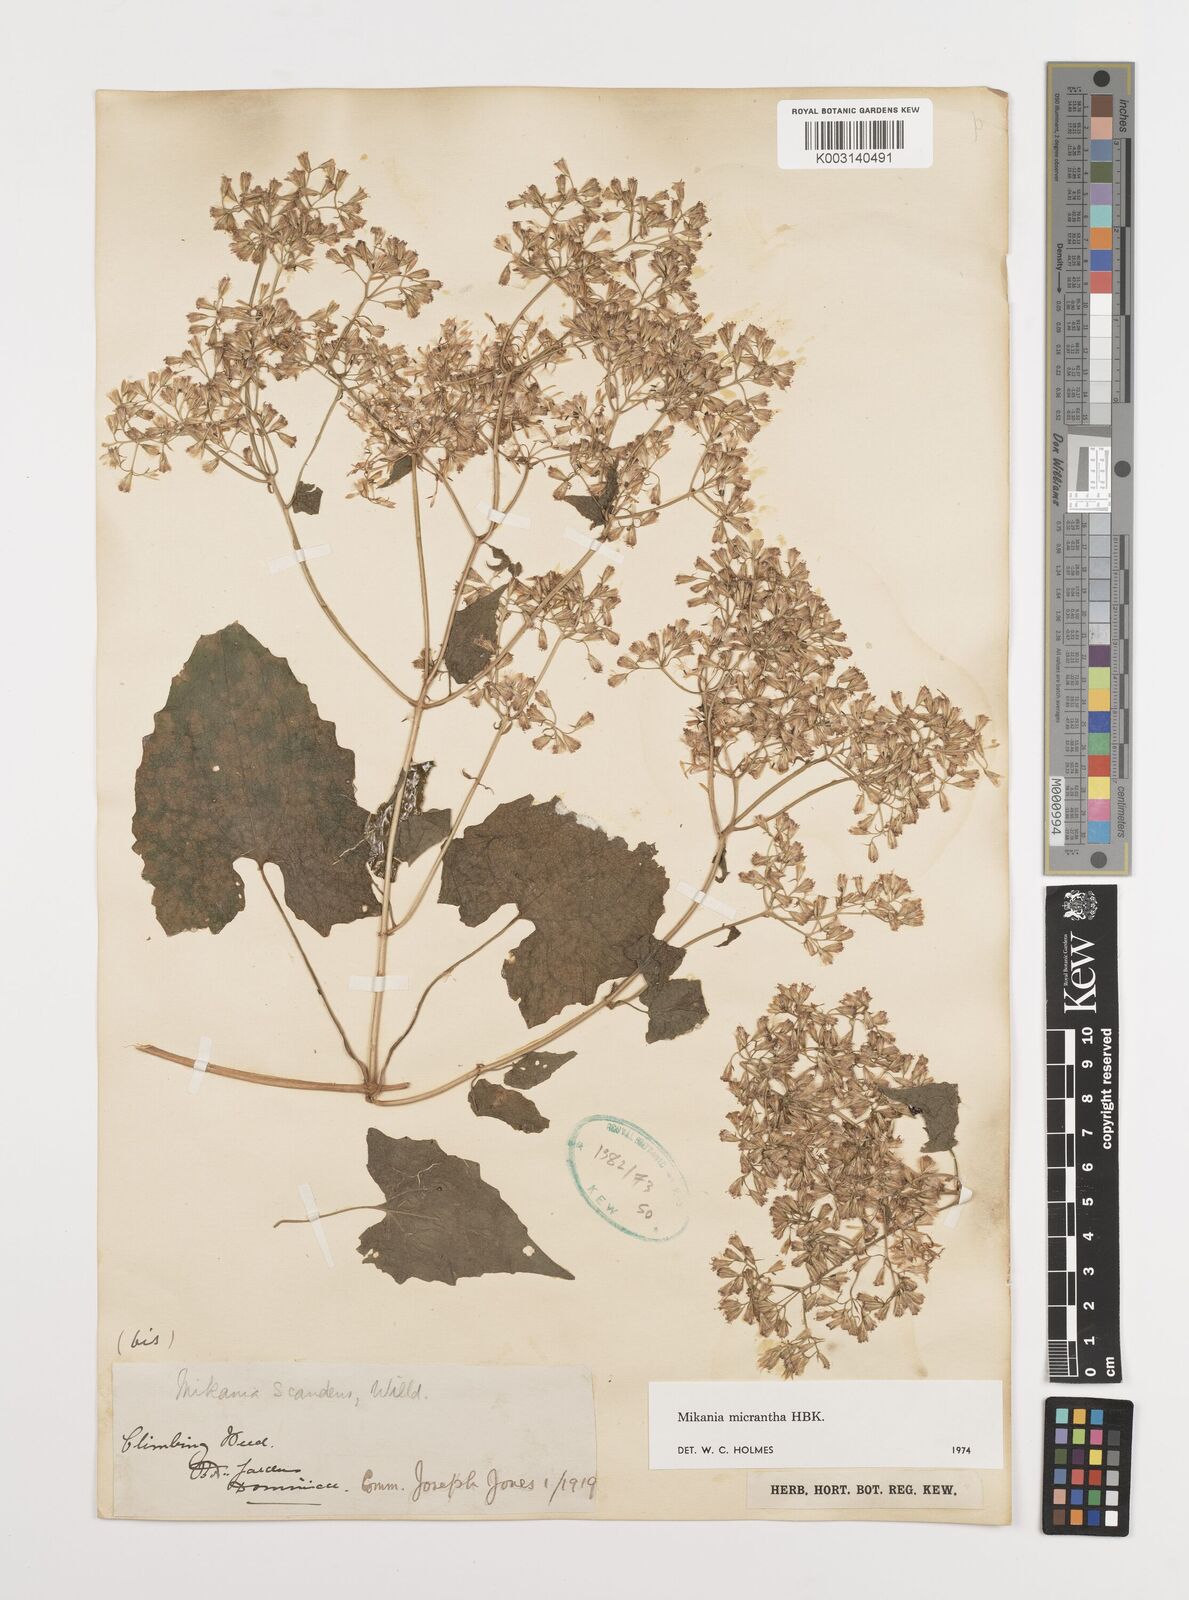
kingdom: Plantae
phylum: Tracheophyta
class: Magnoliopsida
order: Asterales
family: Asteraceae
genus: Mikania
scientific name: Mikania micrantha
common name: Mile-a-minute
